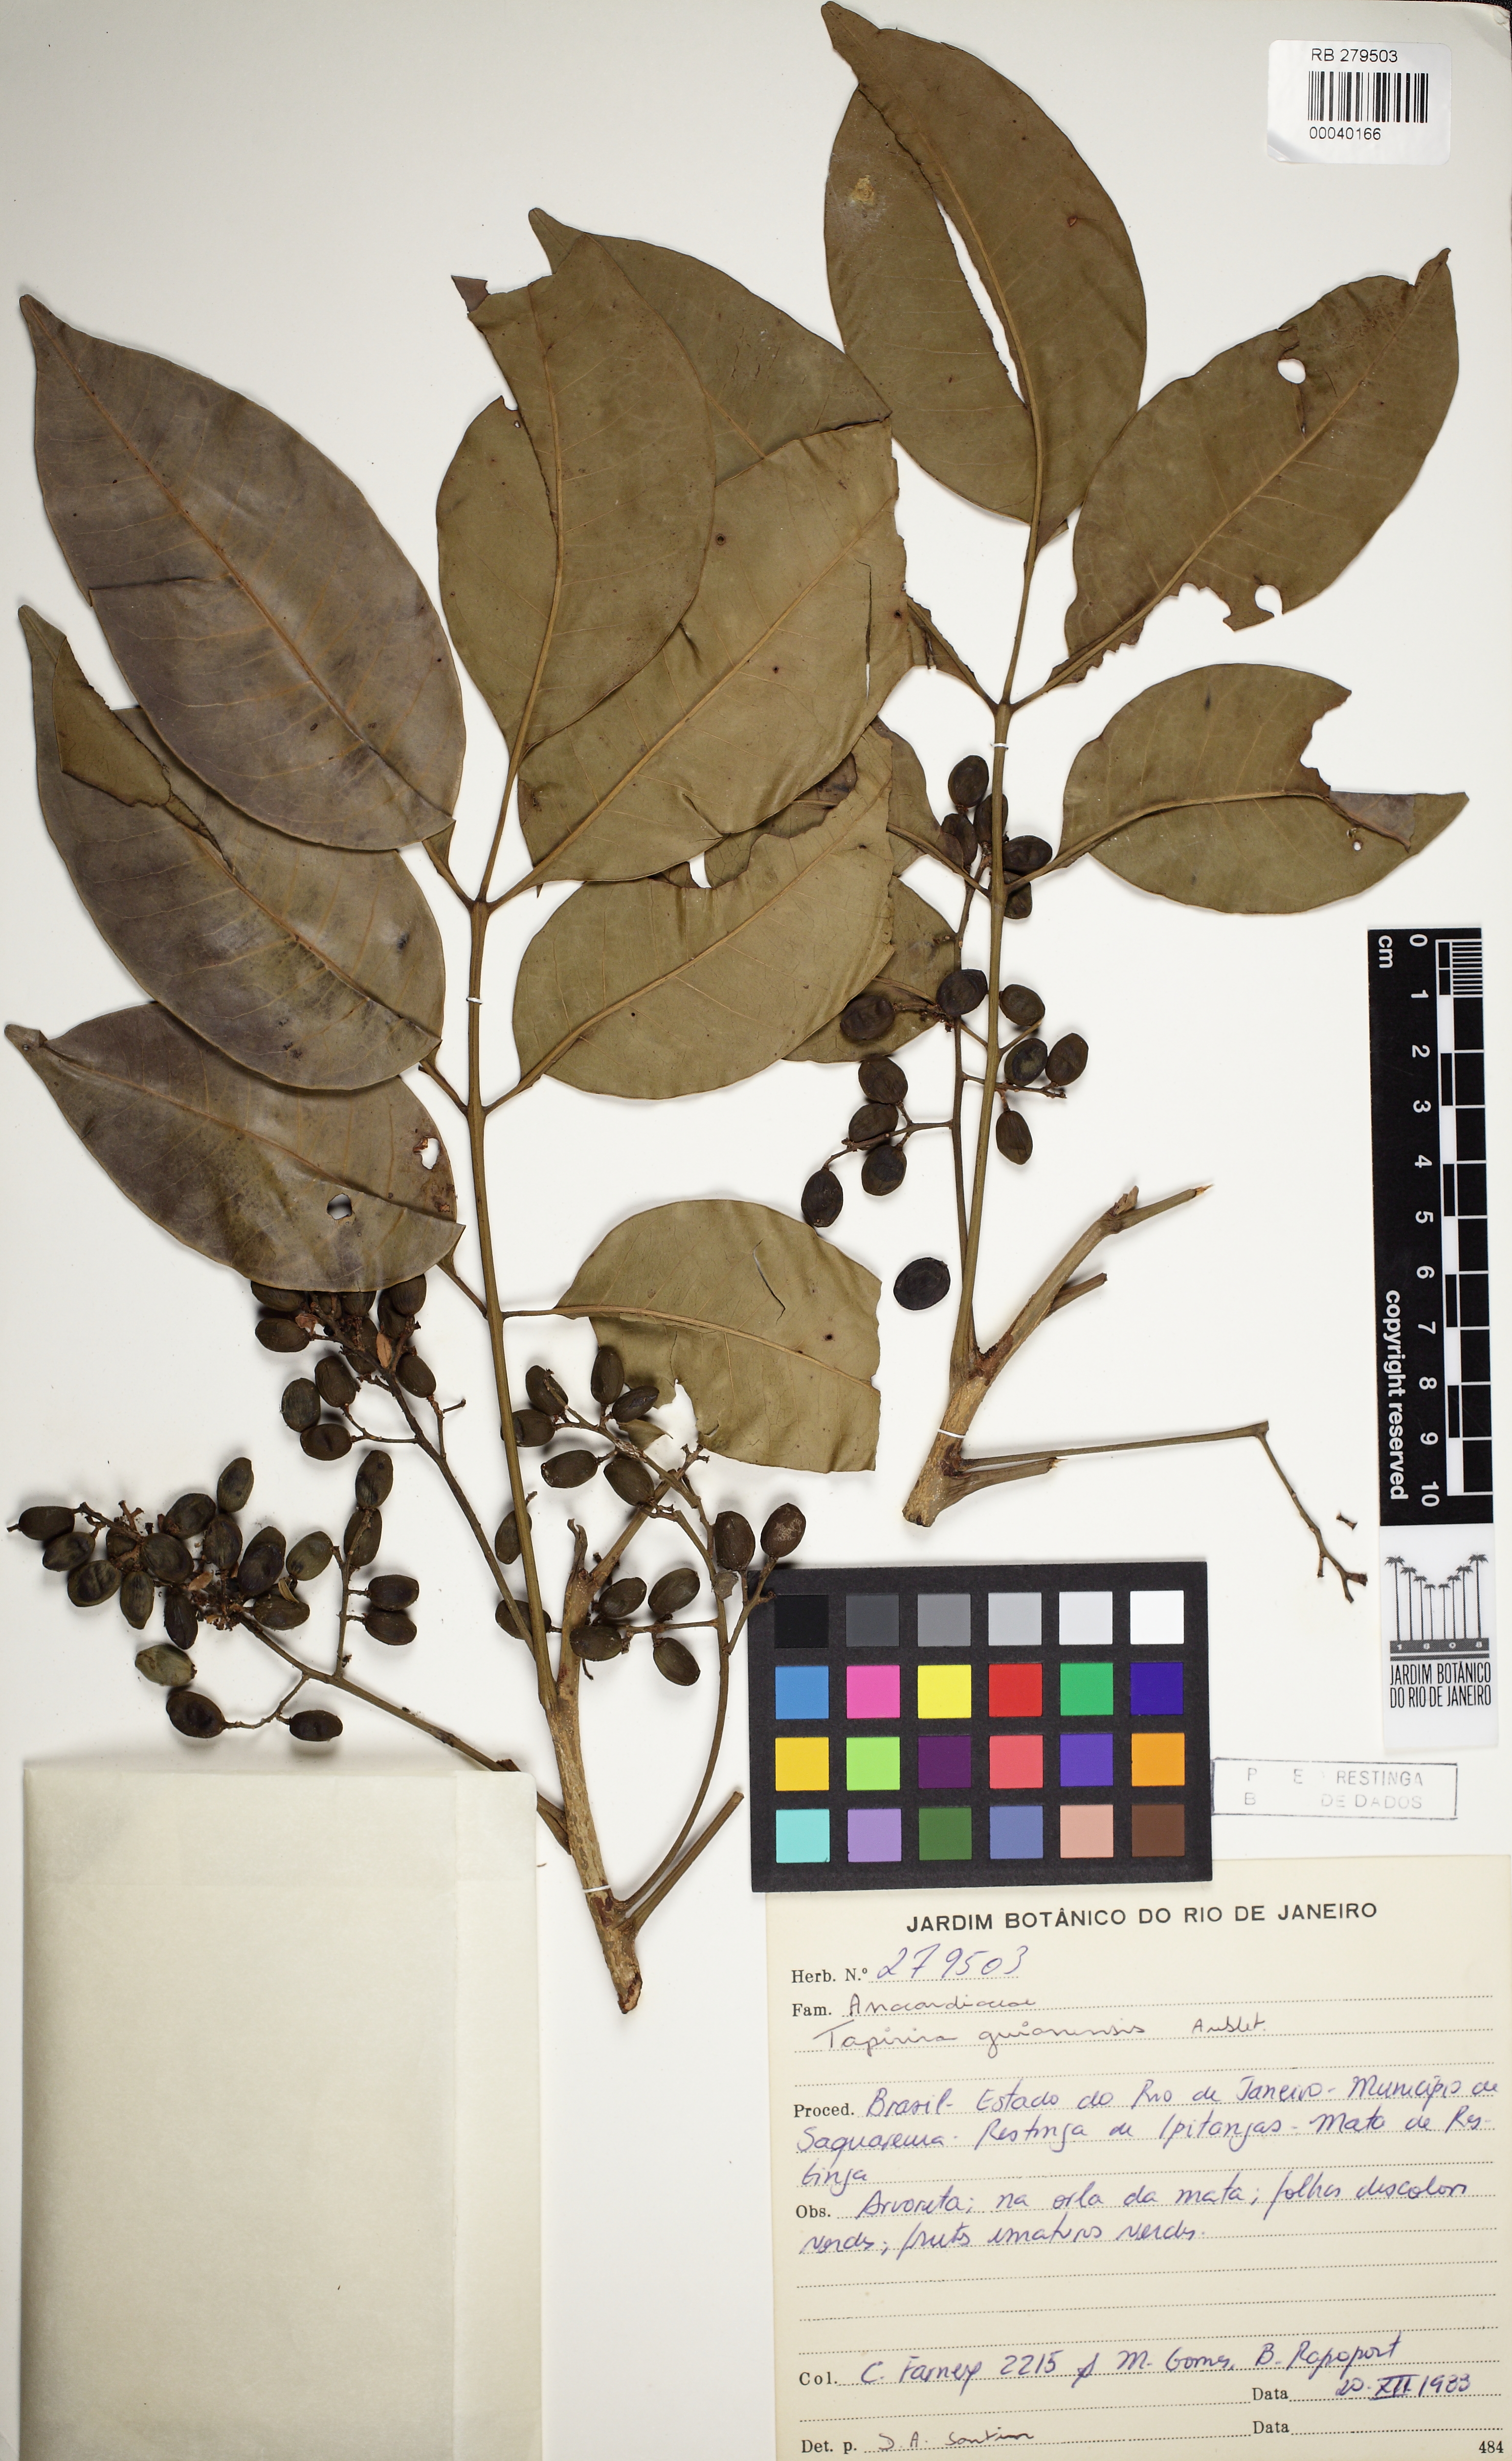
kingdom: Plantae
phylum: Tracheophyta
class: Magnoliopsida
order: Sapindales
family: Anacardiaceae
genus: Tapirira
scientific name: Tapirira guianensis
